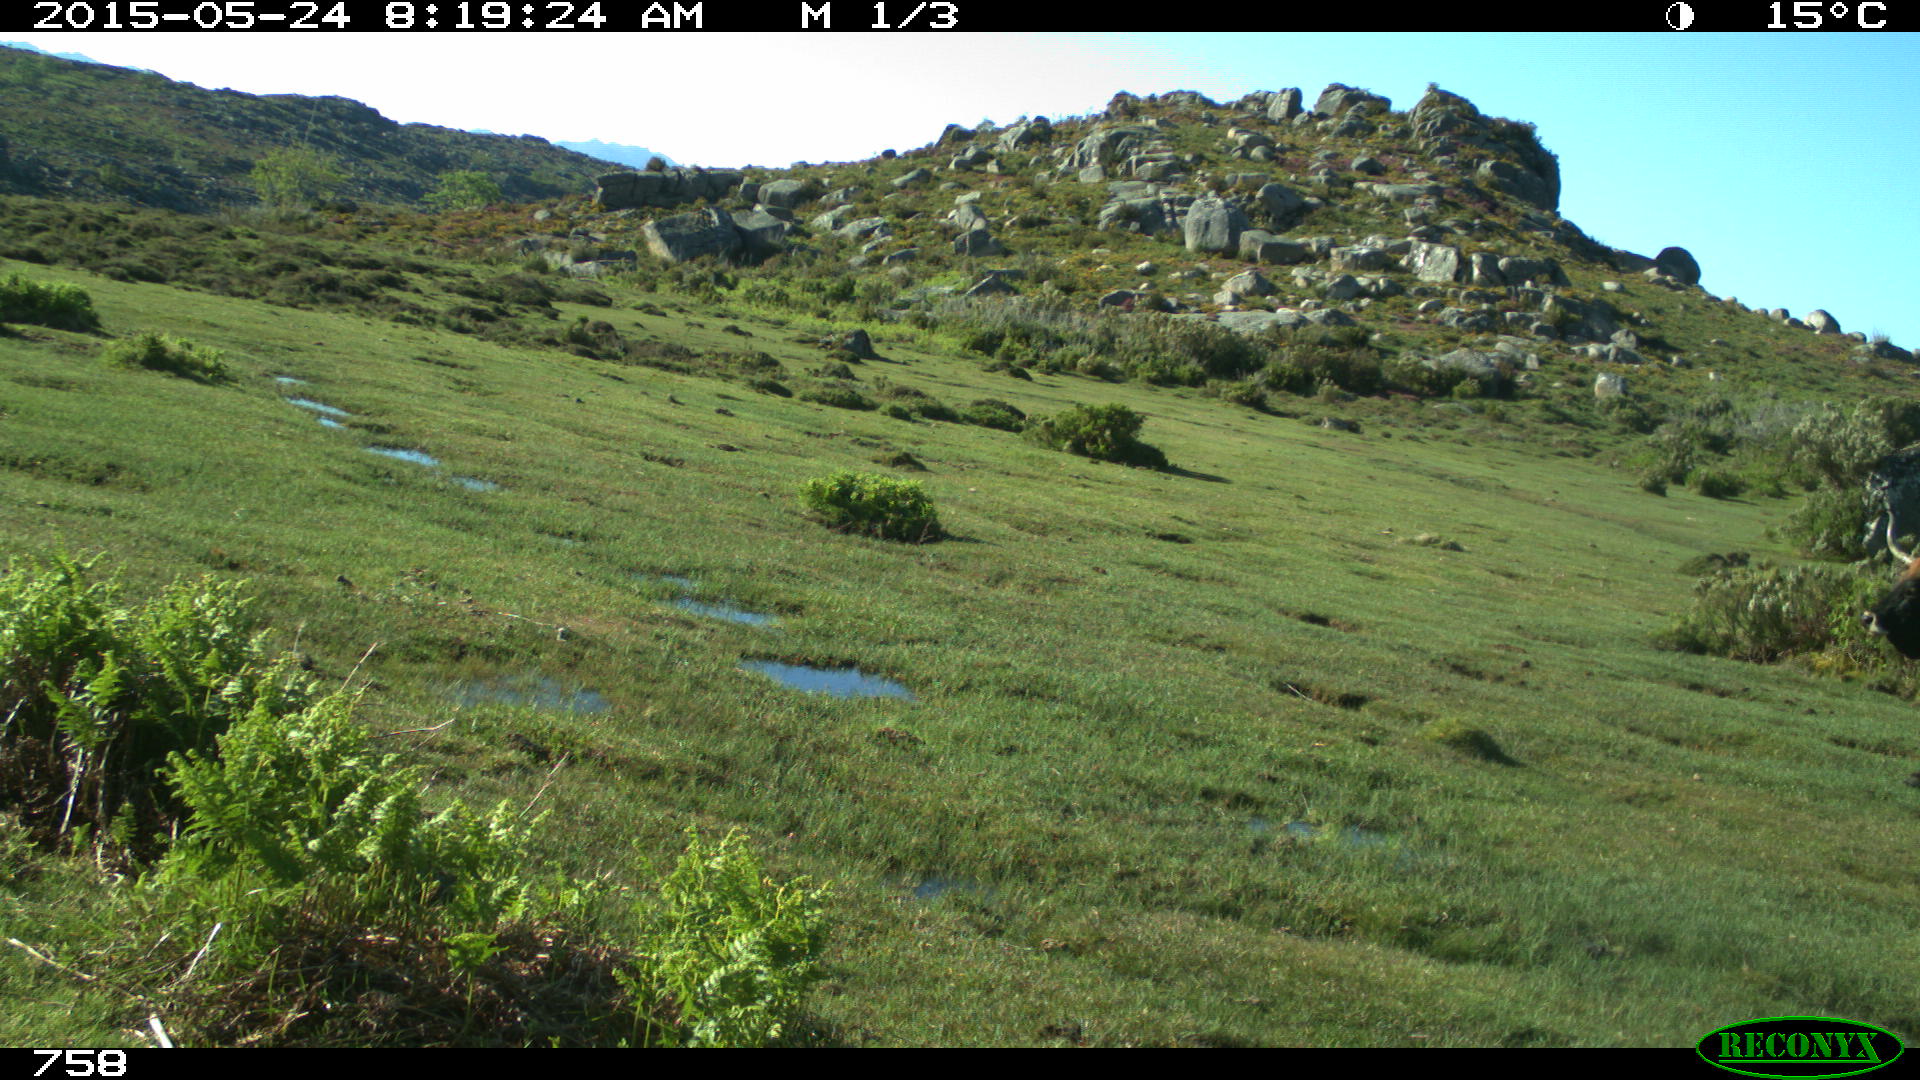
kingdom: Animalia
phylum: Chordata
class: Mammalia
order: Artiodactyla
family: Bovidae
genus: Bos
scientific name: Bos taurus
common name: Domesticated cattle
